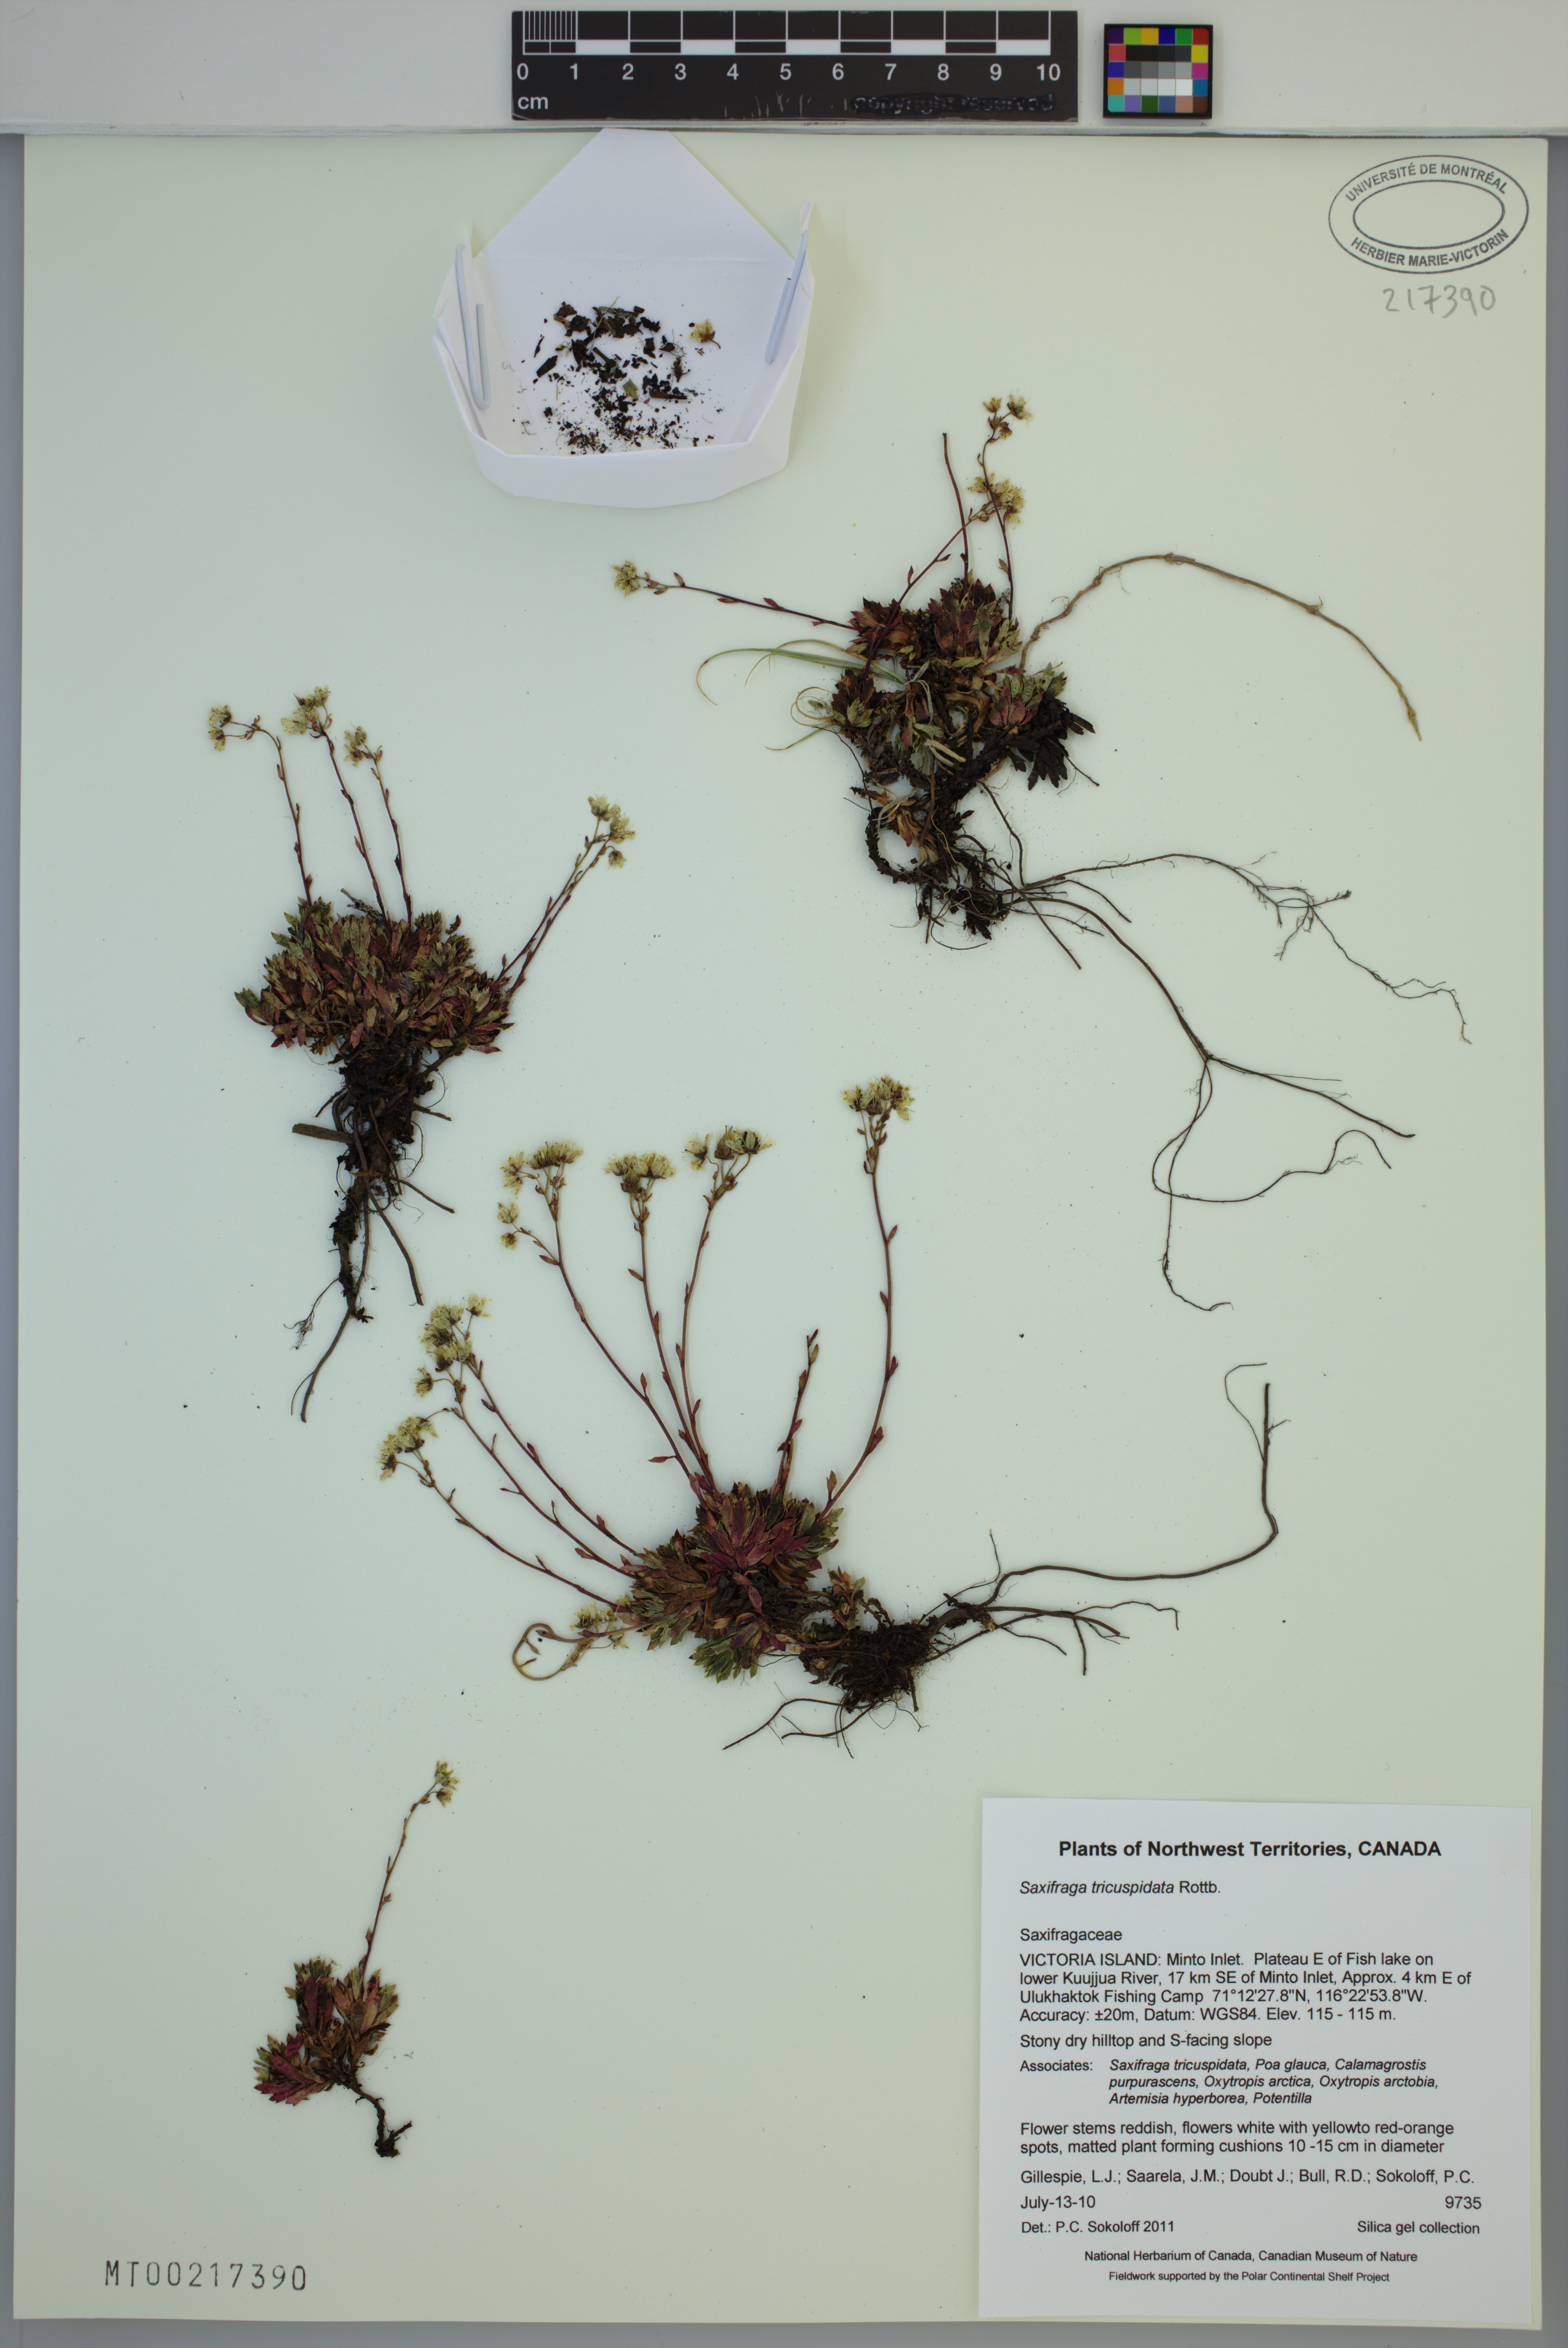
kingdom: Plantae
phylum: Tracheophyta
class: Magnoliopsida
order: Saxifragales
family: Saxifragaceae
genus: Saxifraga
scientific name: Saxifraga tricuspidata
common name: Prickly saxifrage
